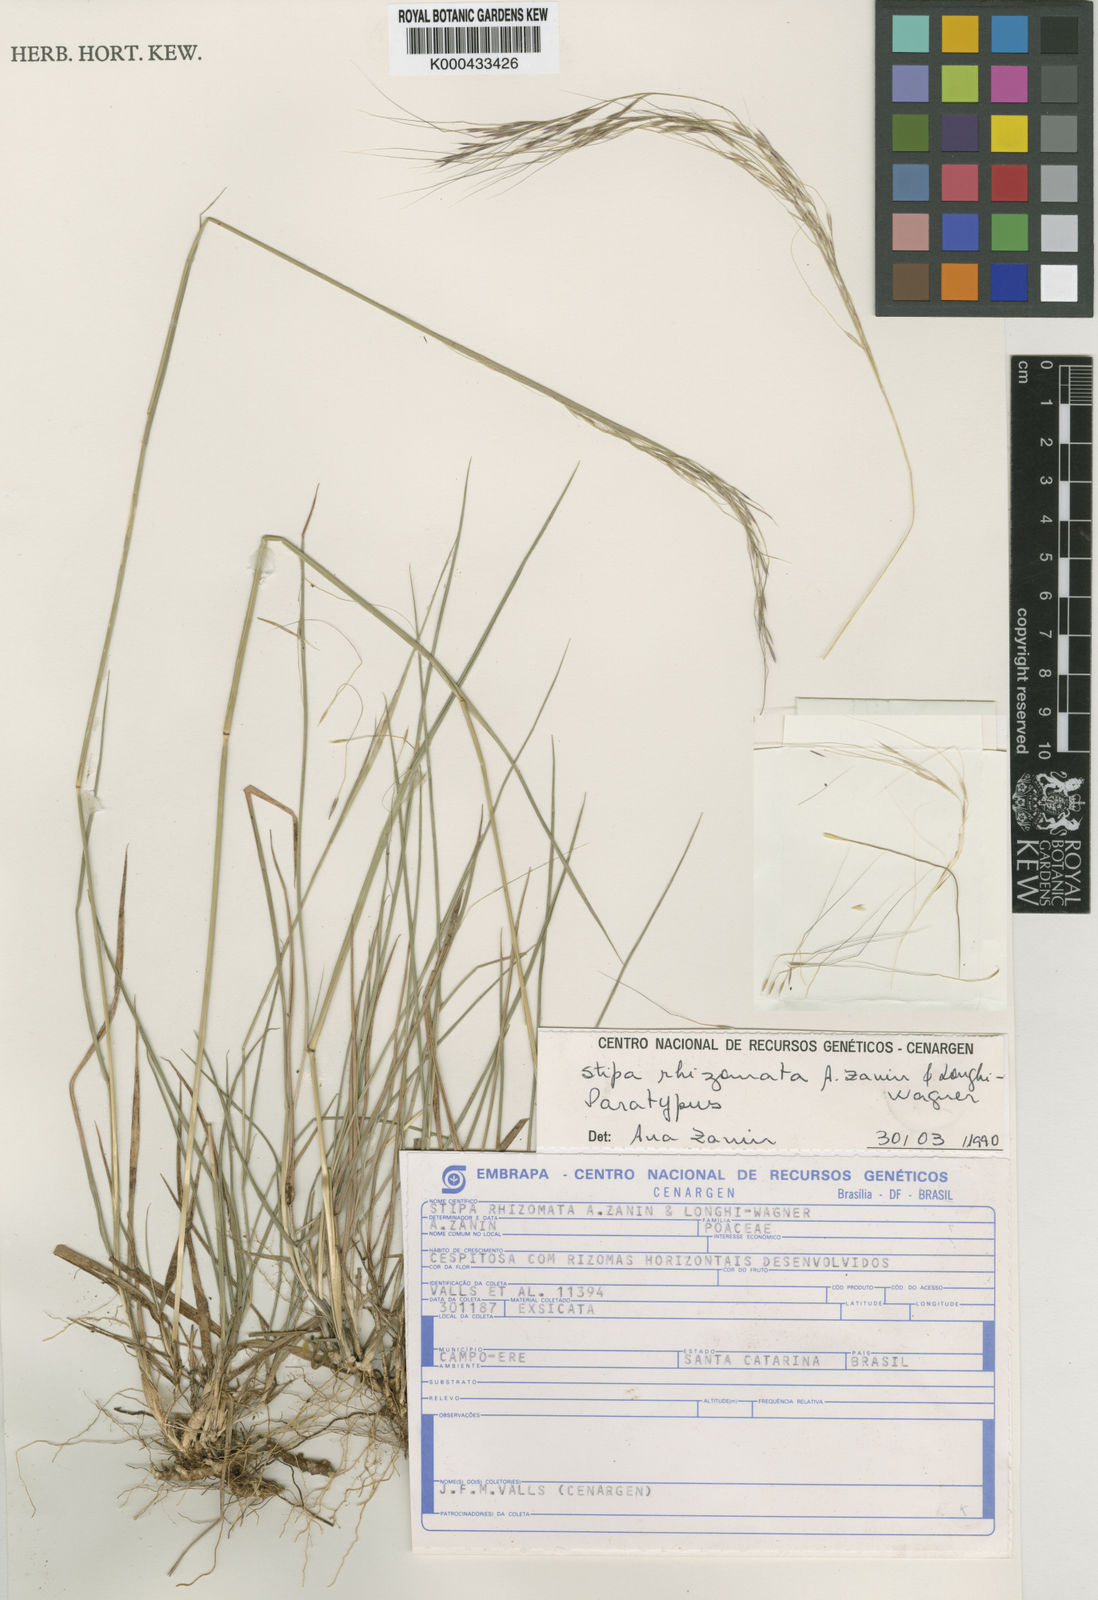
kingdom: Plantae
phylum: Tracheophyta
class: Liliopsida
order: Poales
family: Poaceae
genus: Nassella
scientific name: Nassella rhizomata
